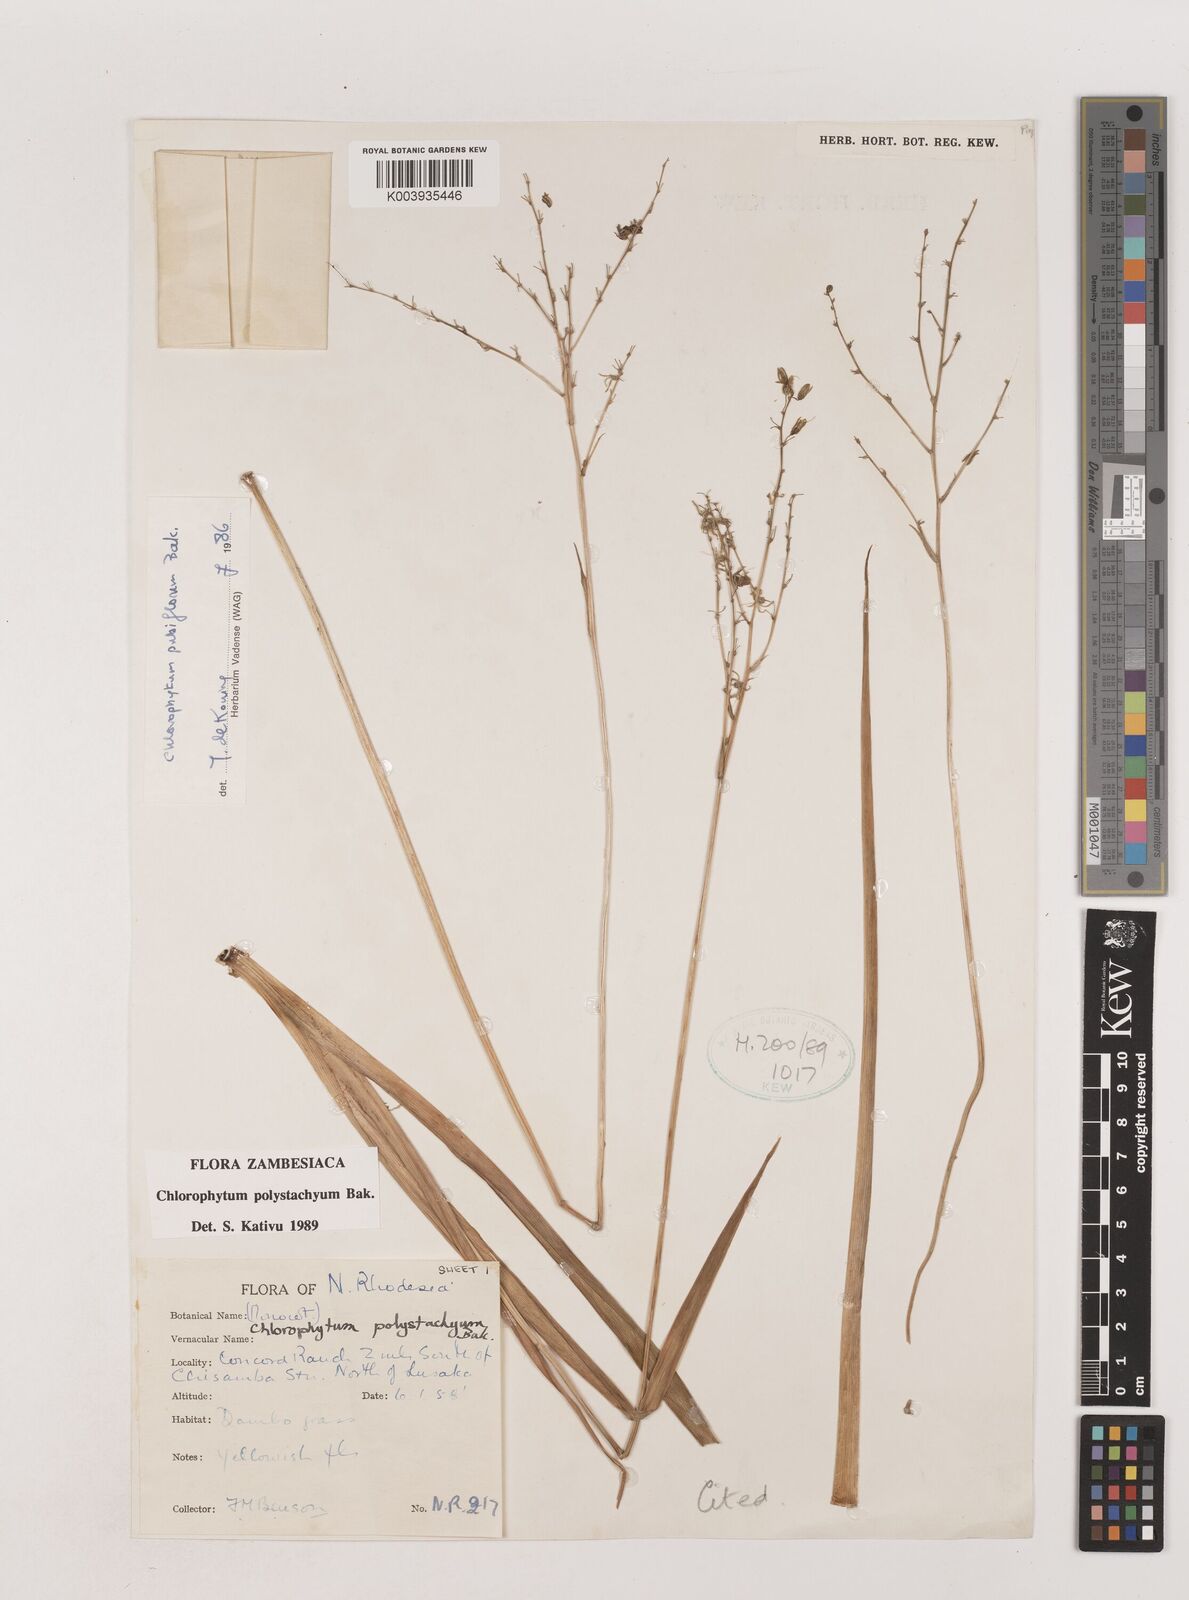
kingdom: Plantae
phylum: Tracheophyta
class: Liliopsida
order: Asparagales
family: Asparagaceae
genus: Chlorophytum
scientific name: Chlorophytum polystachys
